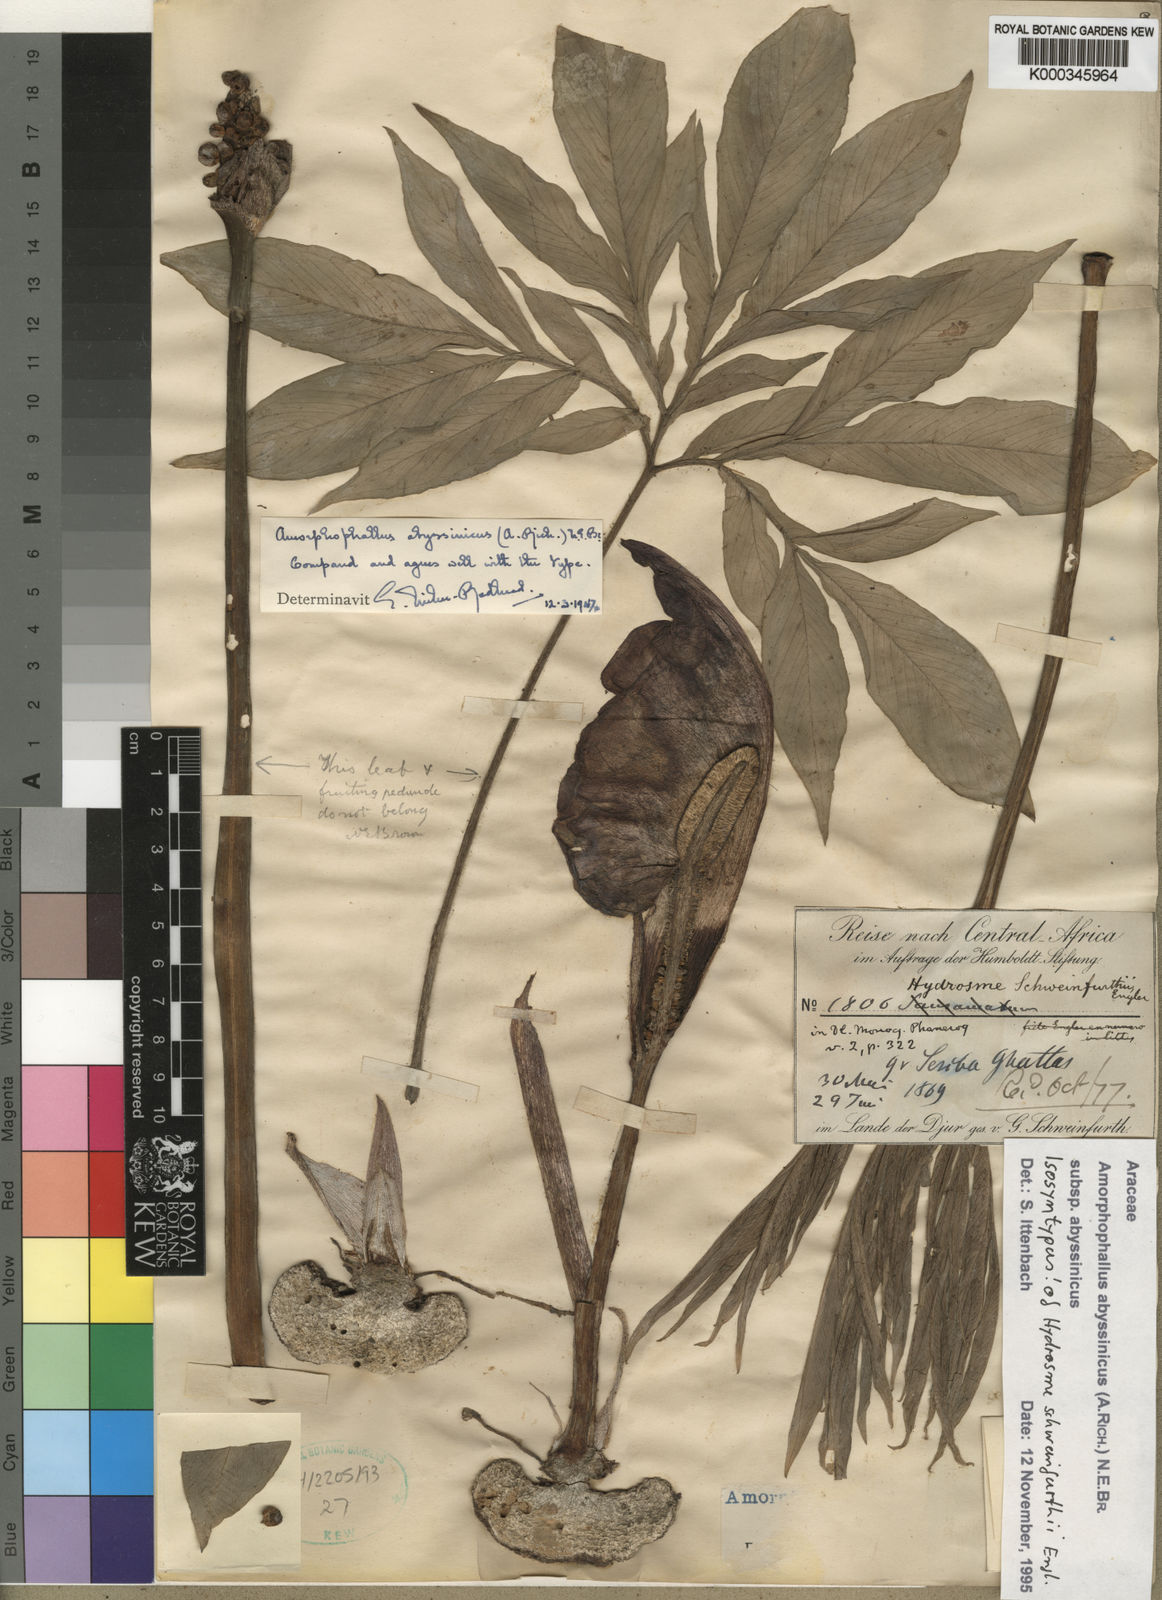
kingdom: Plantae
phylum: Tracheophyta
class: Liliopsida
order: Alismatales
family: Araceae
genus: Amorphophallus
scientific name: Amorphophallus abyssinicus
